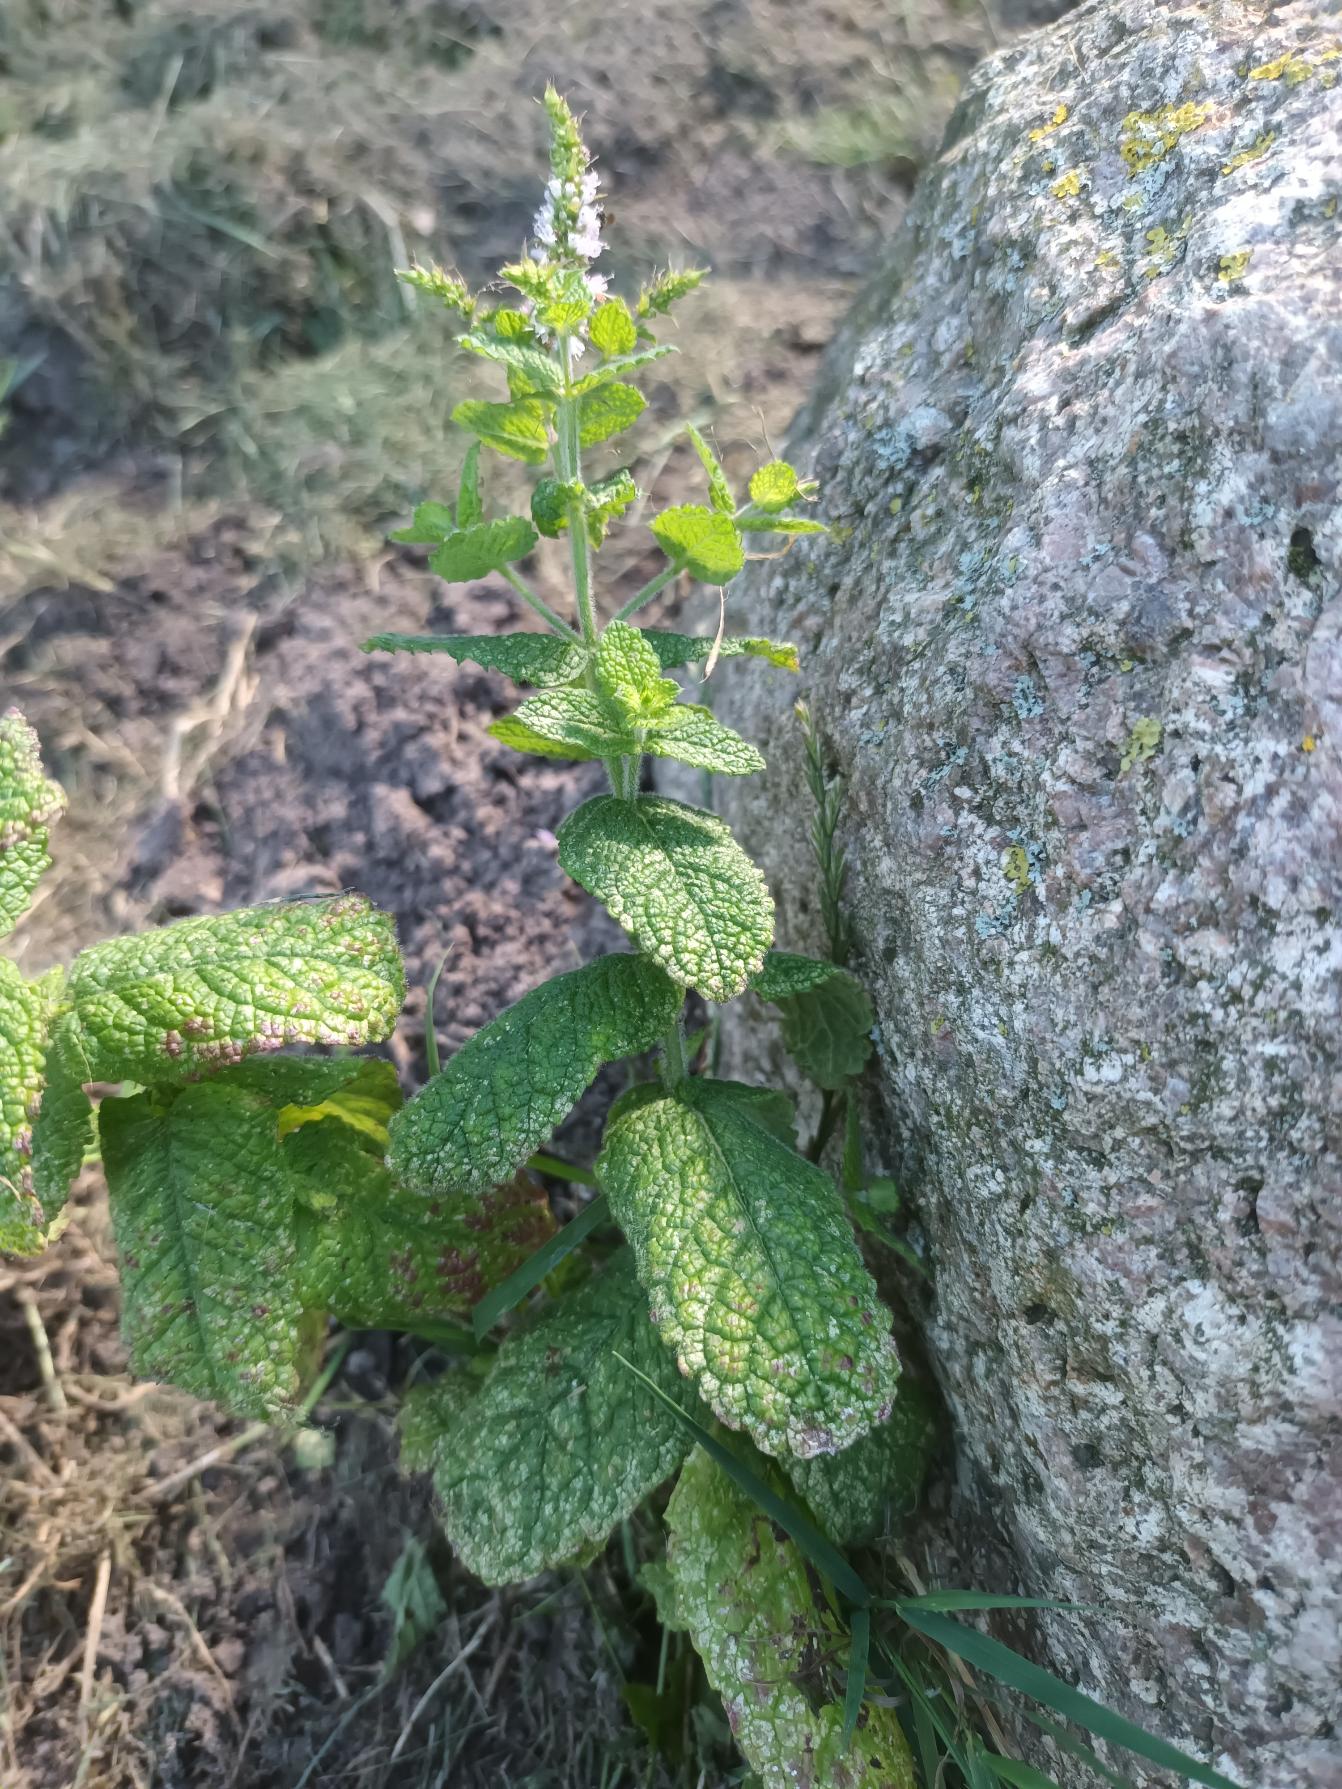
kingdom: Plantae
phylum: Tracheophyta
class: Magnoliopsida
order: Lamiales
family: Lamiaceae
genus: Mentha
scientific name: Mentha suaveolens
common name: Rundbladet mynte
